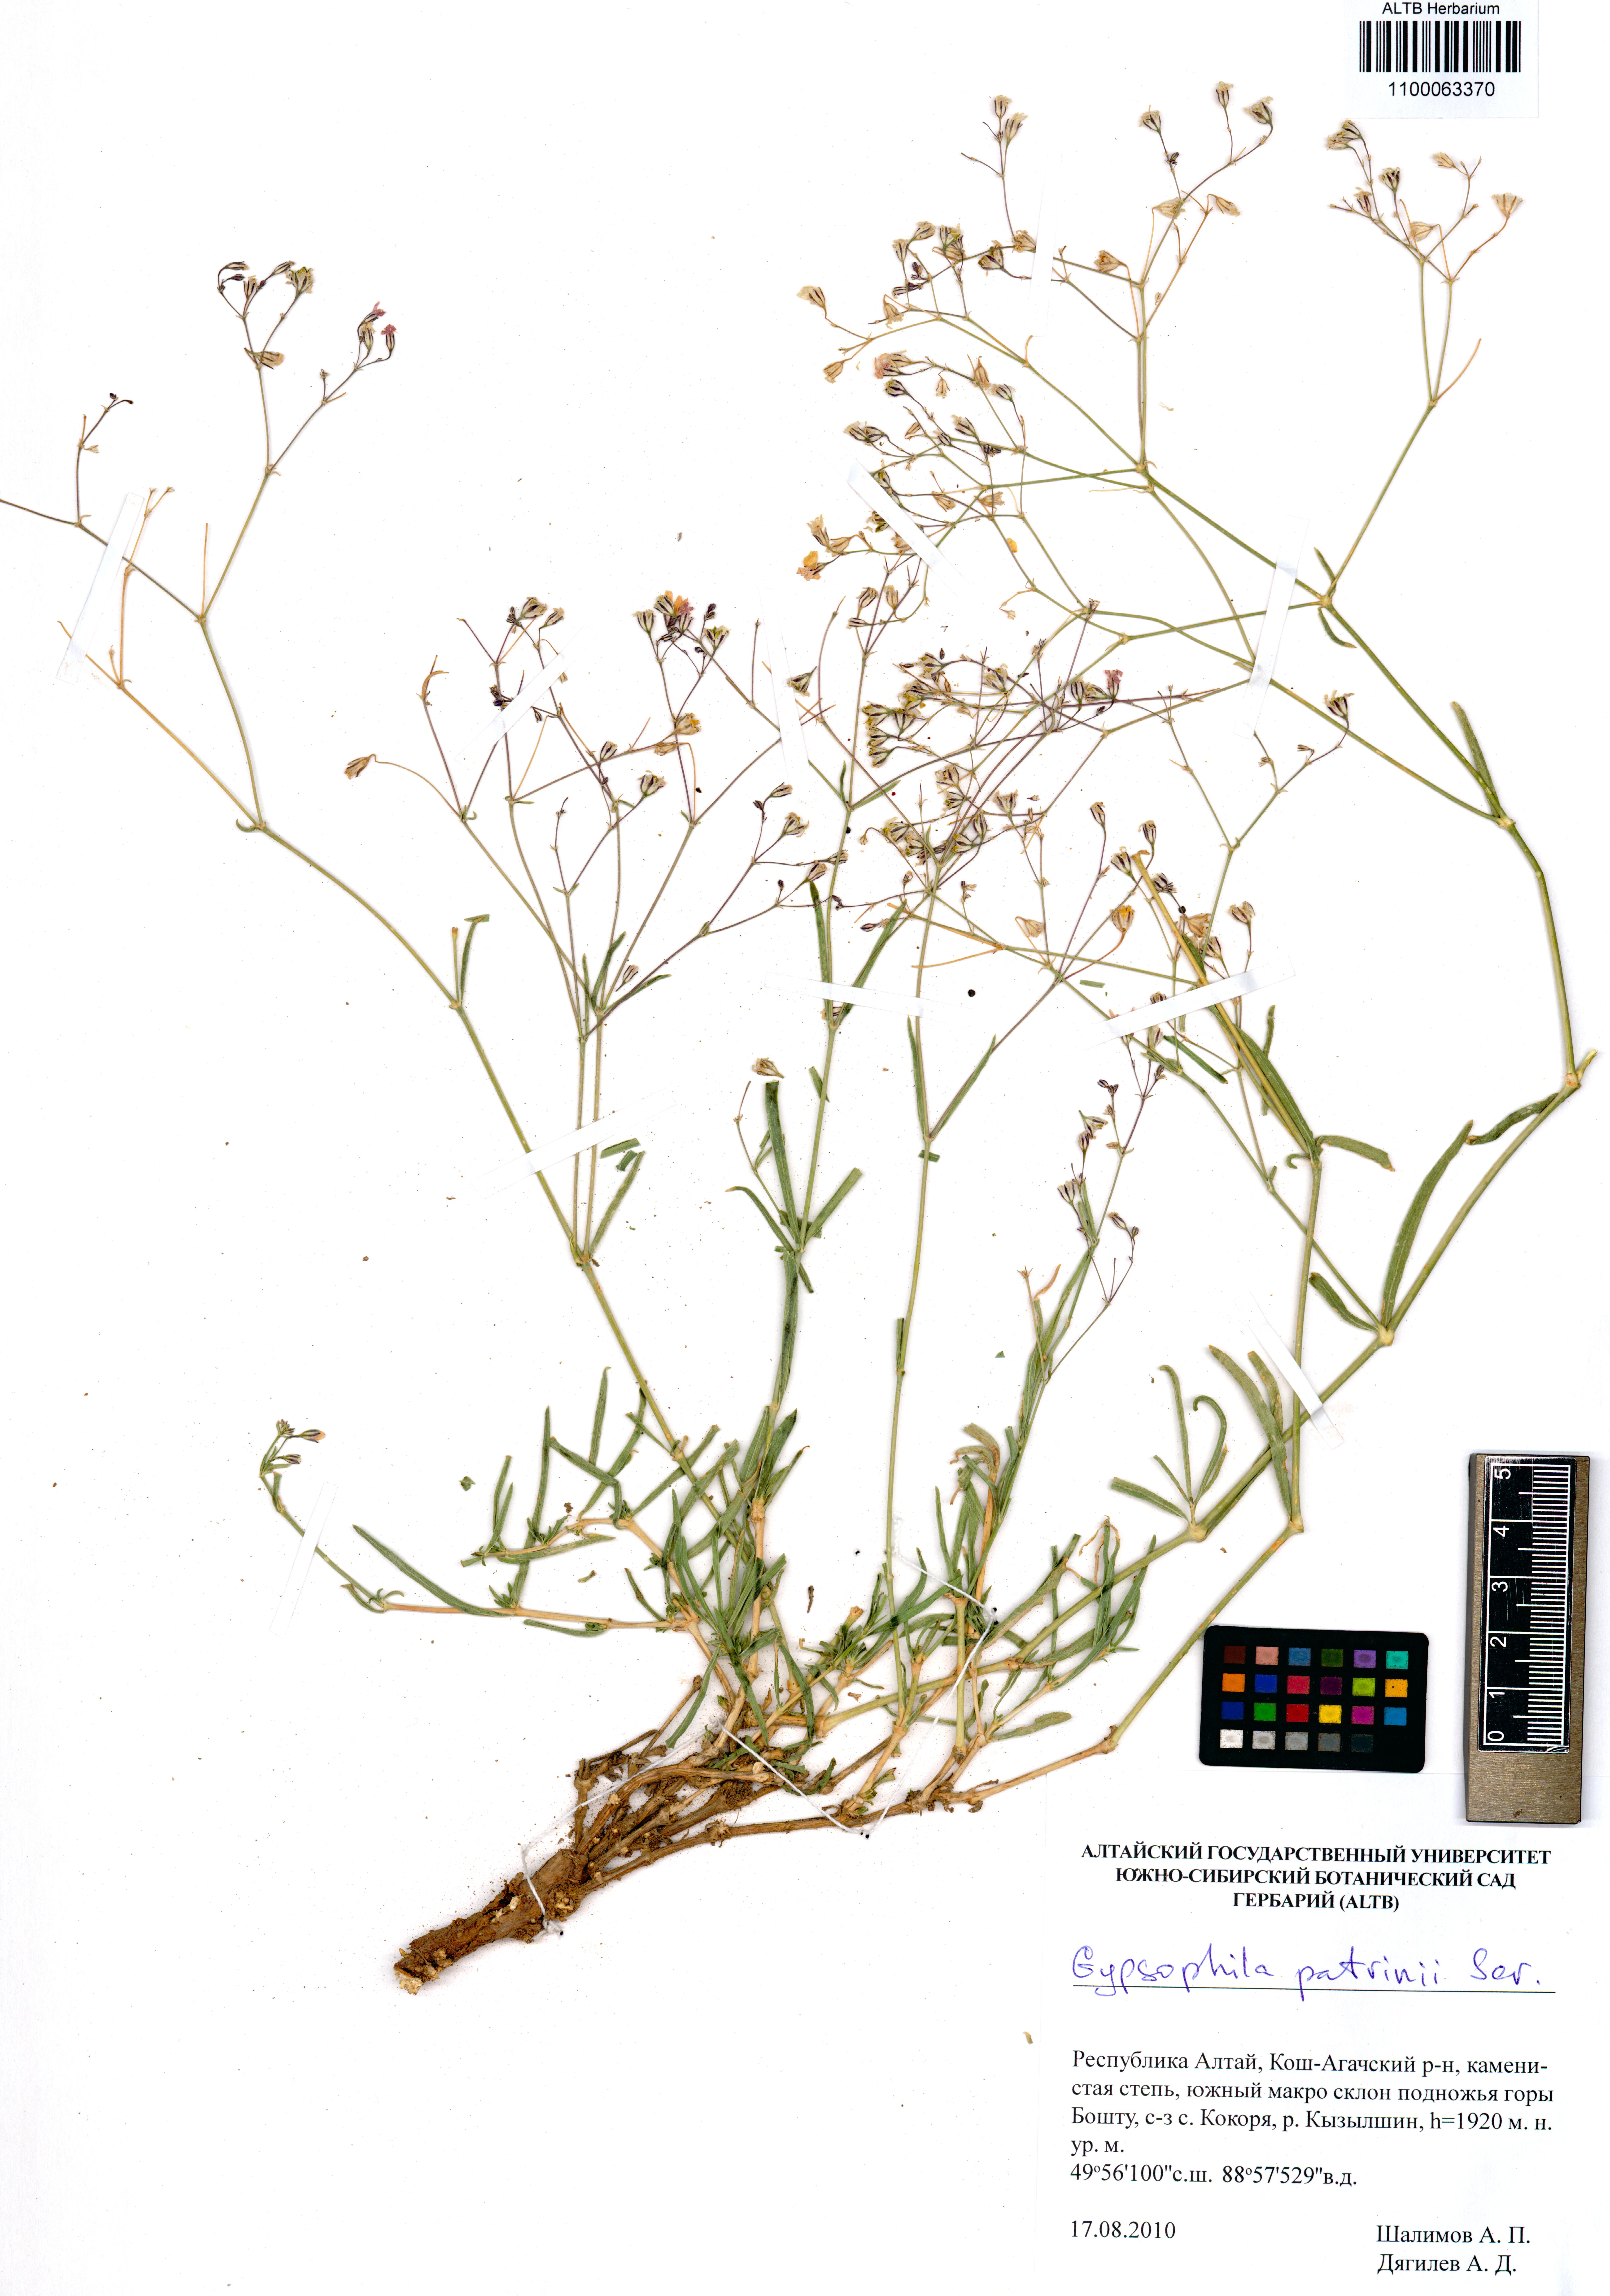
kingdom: Plantae
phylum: Tracheophyta
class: Magnoliopsida
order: Caryophyllales
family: Caryophyllaceae
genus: Gypsophila
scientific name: Gypsophila patrinii
